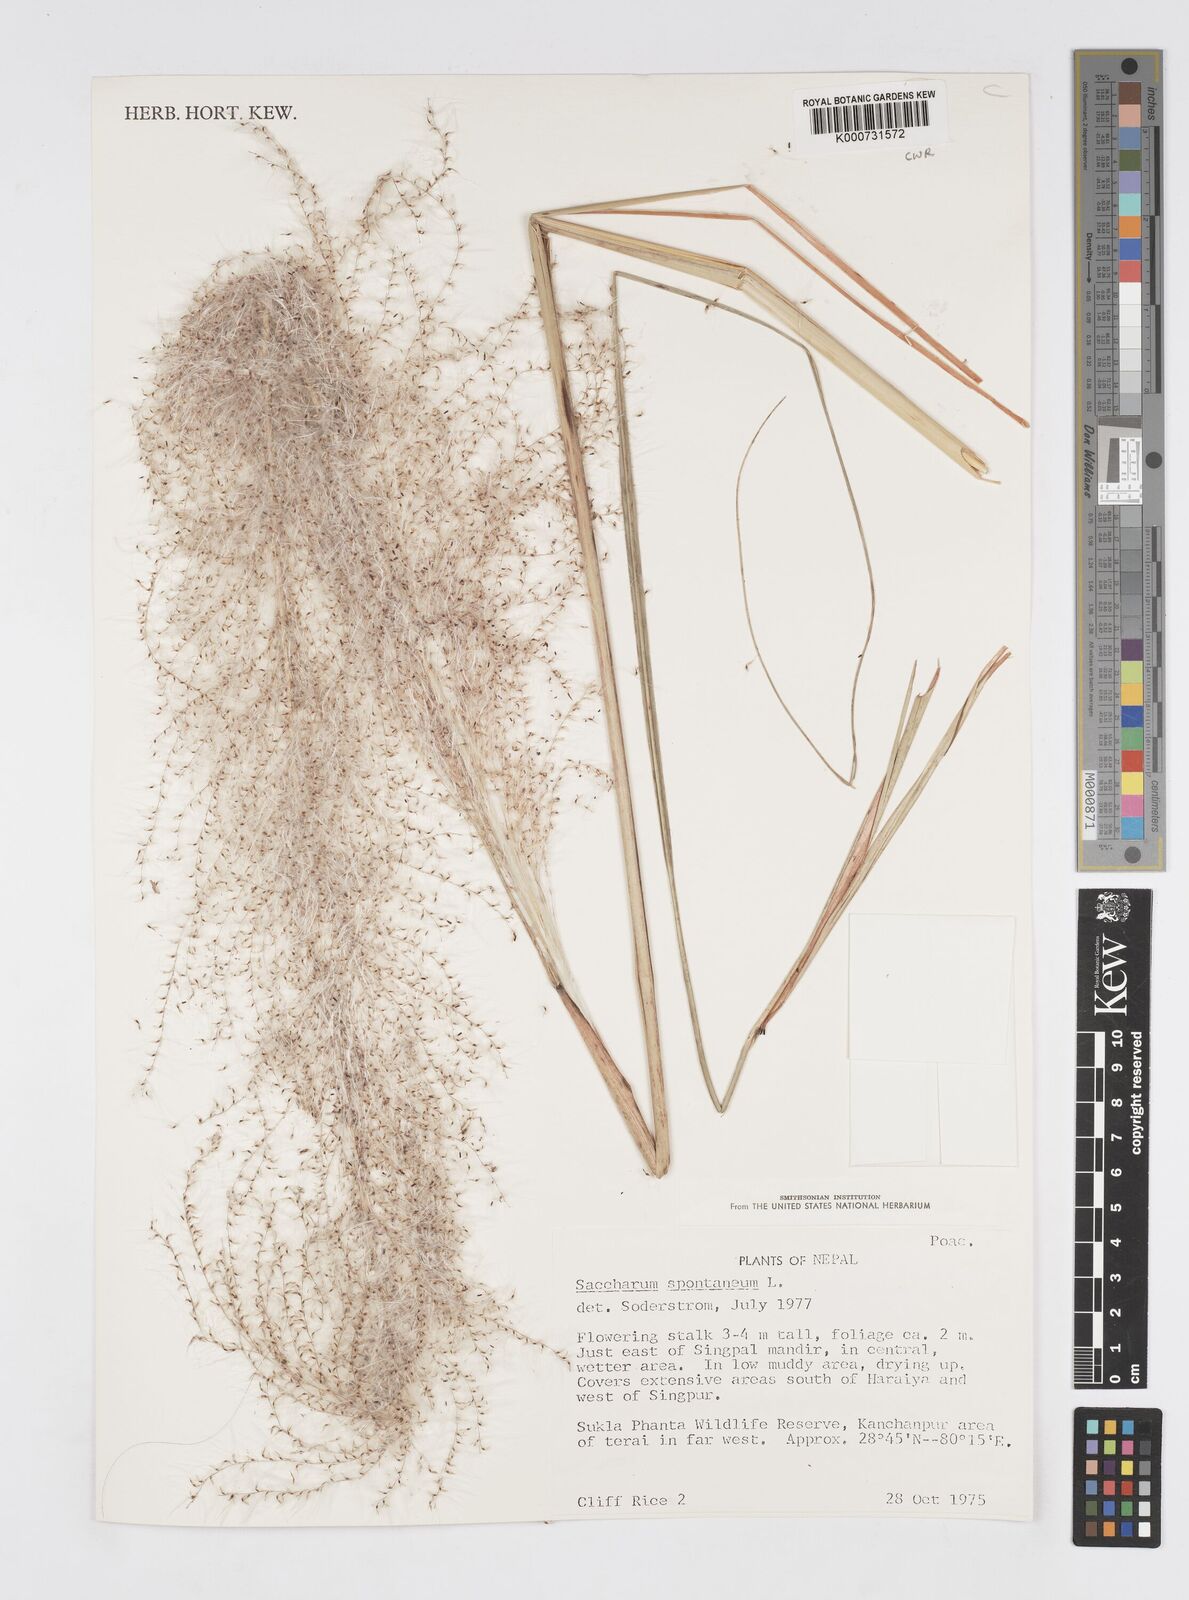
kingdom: Plantae
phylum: Tracheophyta
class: Liliopsida
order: Poales
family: Poaceae
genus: Saccharum
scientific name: Saccharum spontaneum
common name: Wild sugarcane
